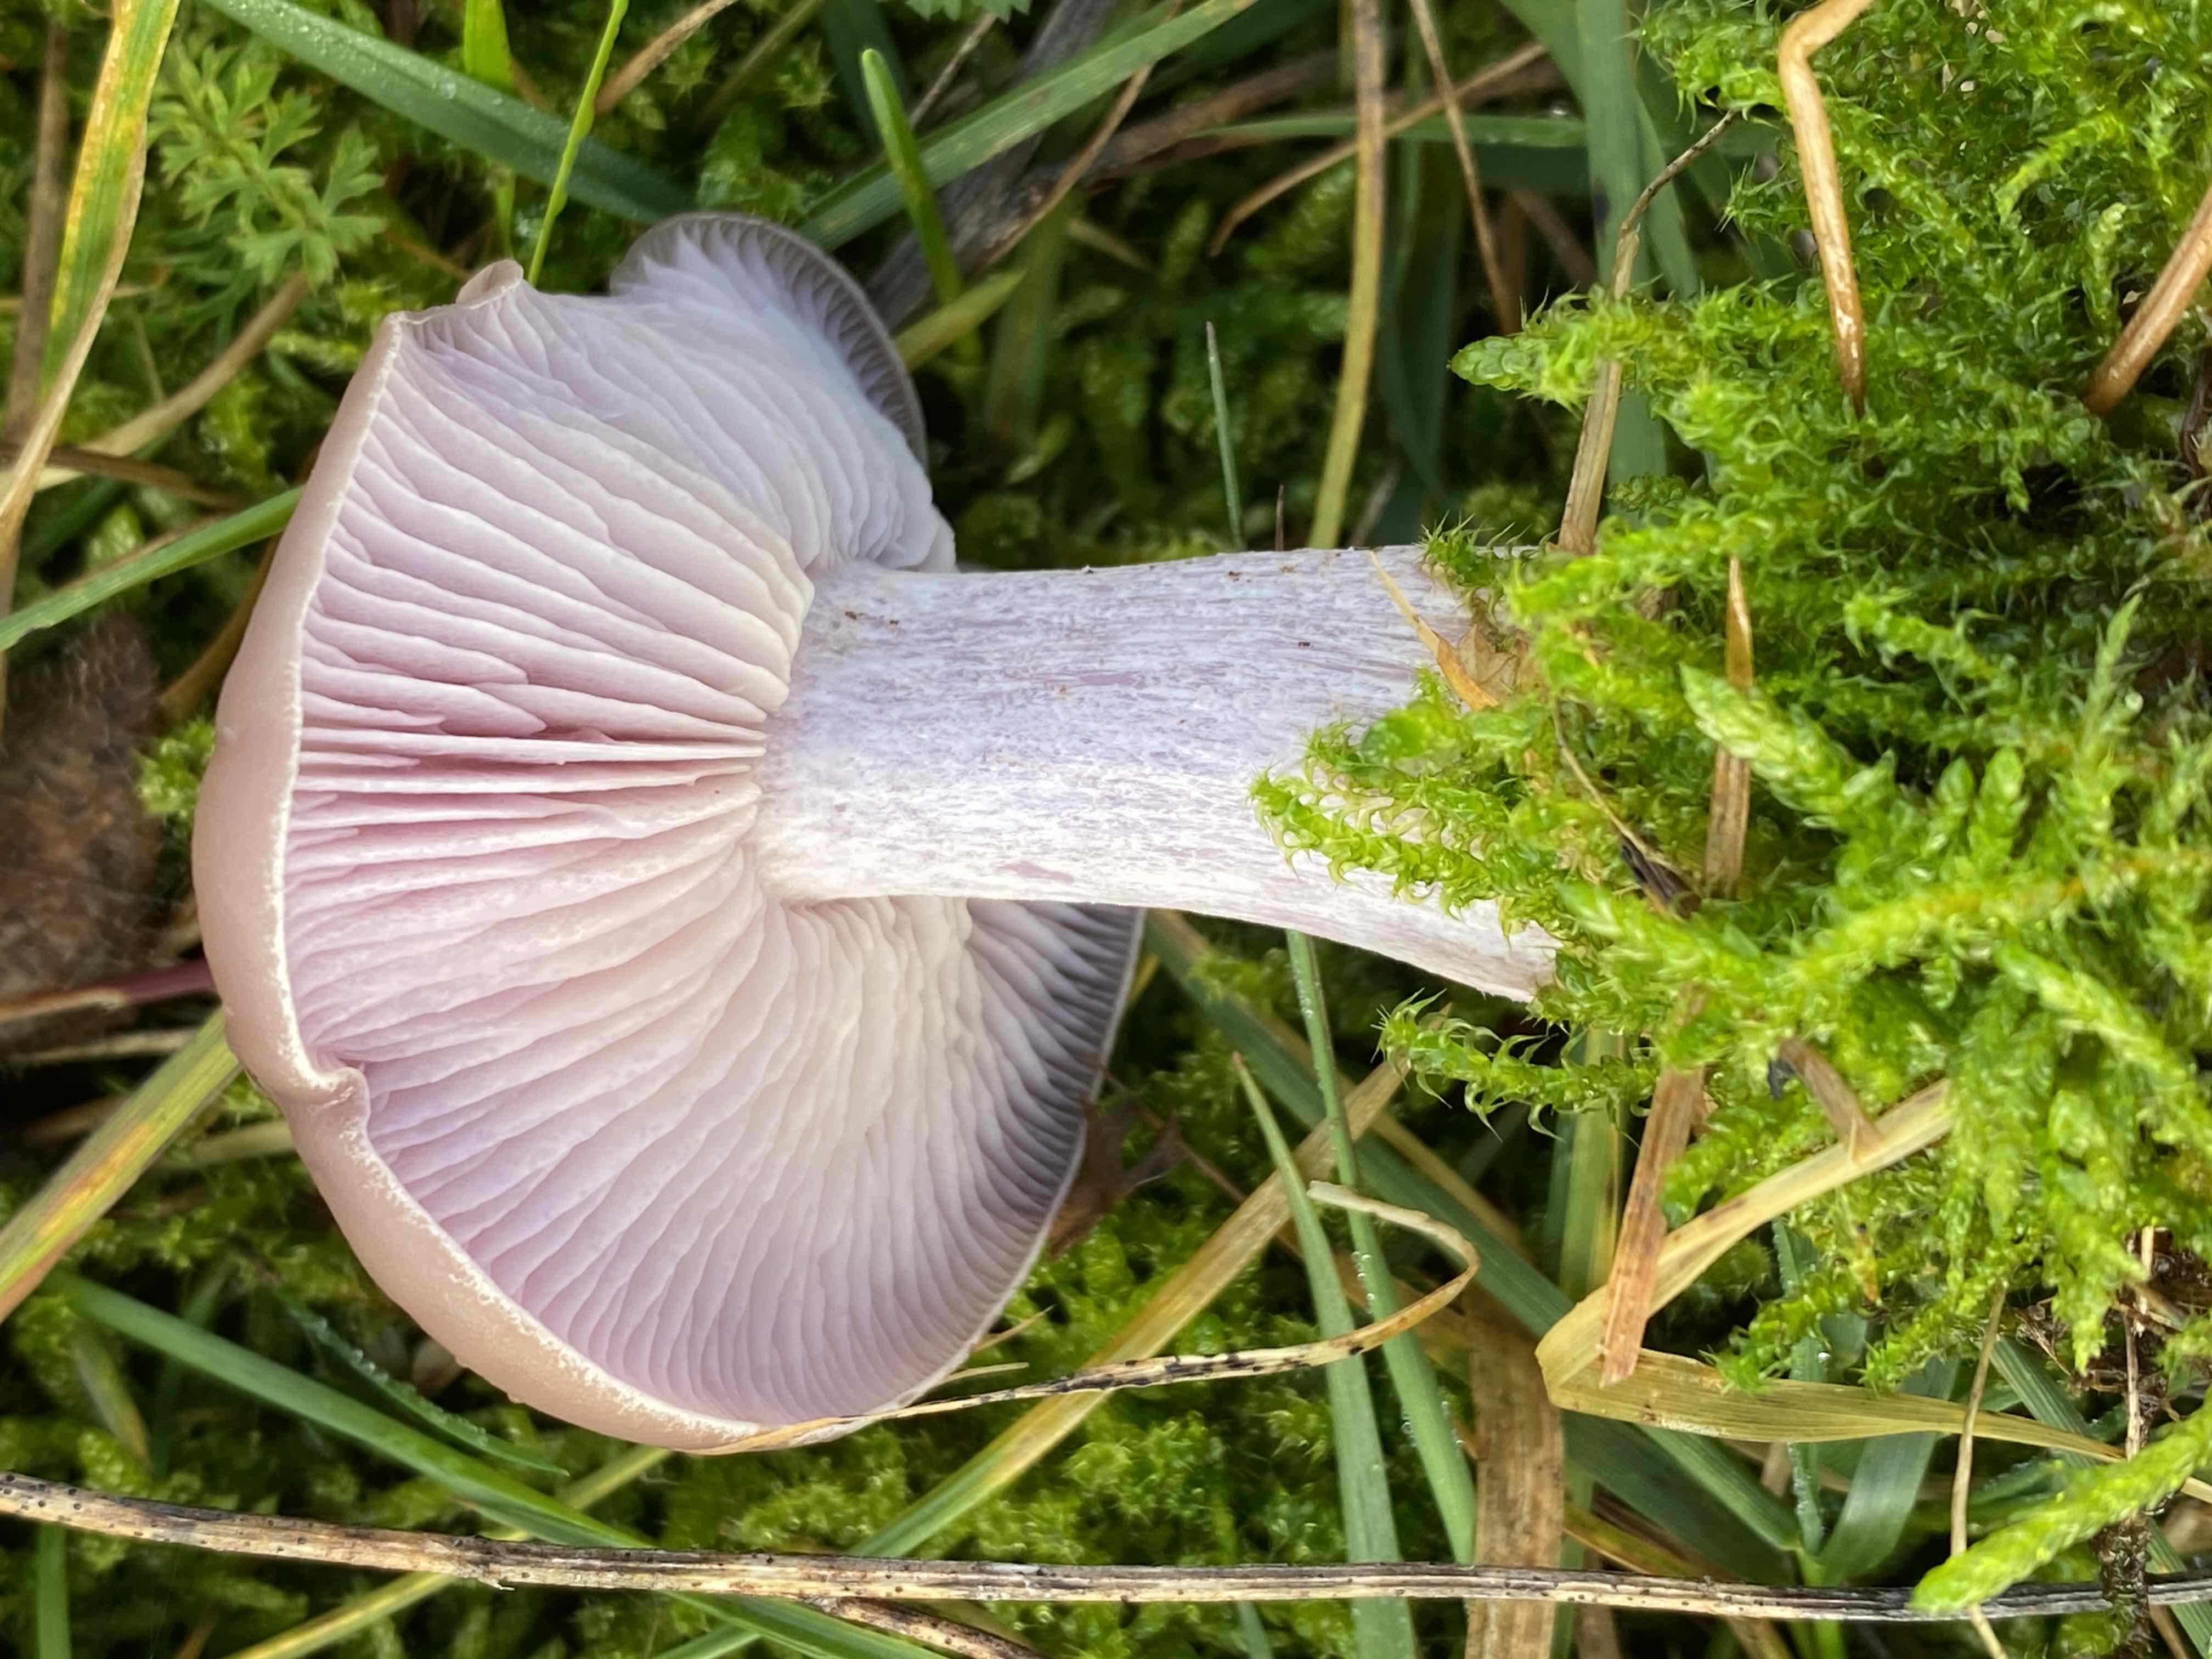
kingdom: Fungi
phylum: Basidiomycota
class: Agaricomycetes
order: Agaricales
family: Tricholomataceae
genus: Lepista
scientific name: Lepista nuda
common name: violet hekseringshat
